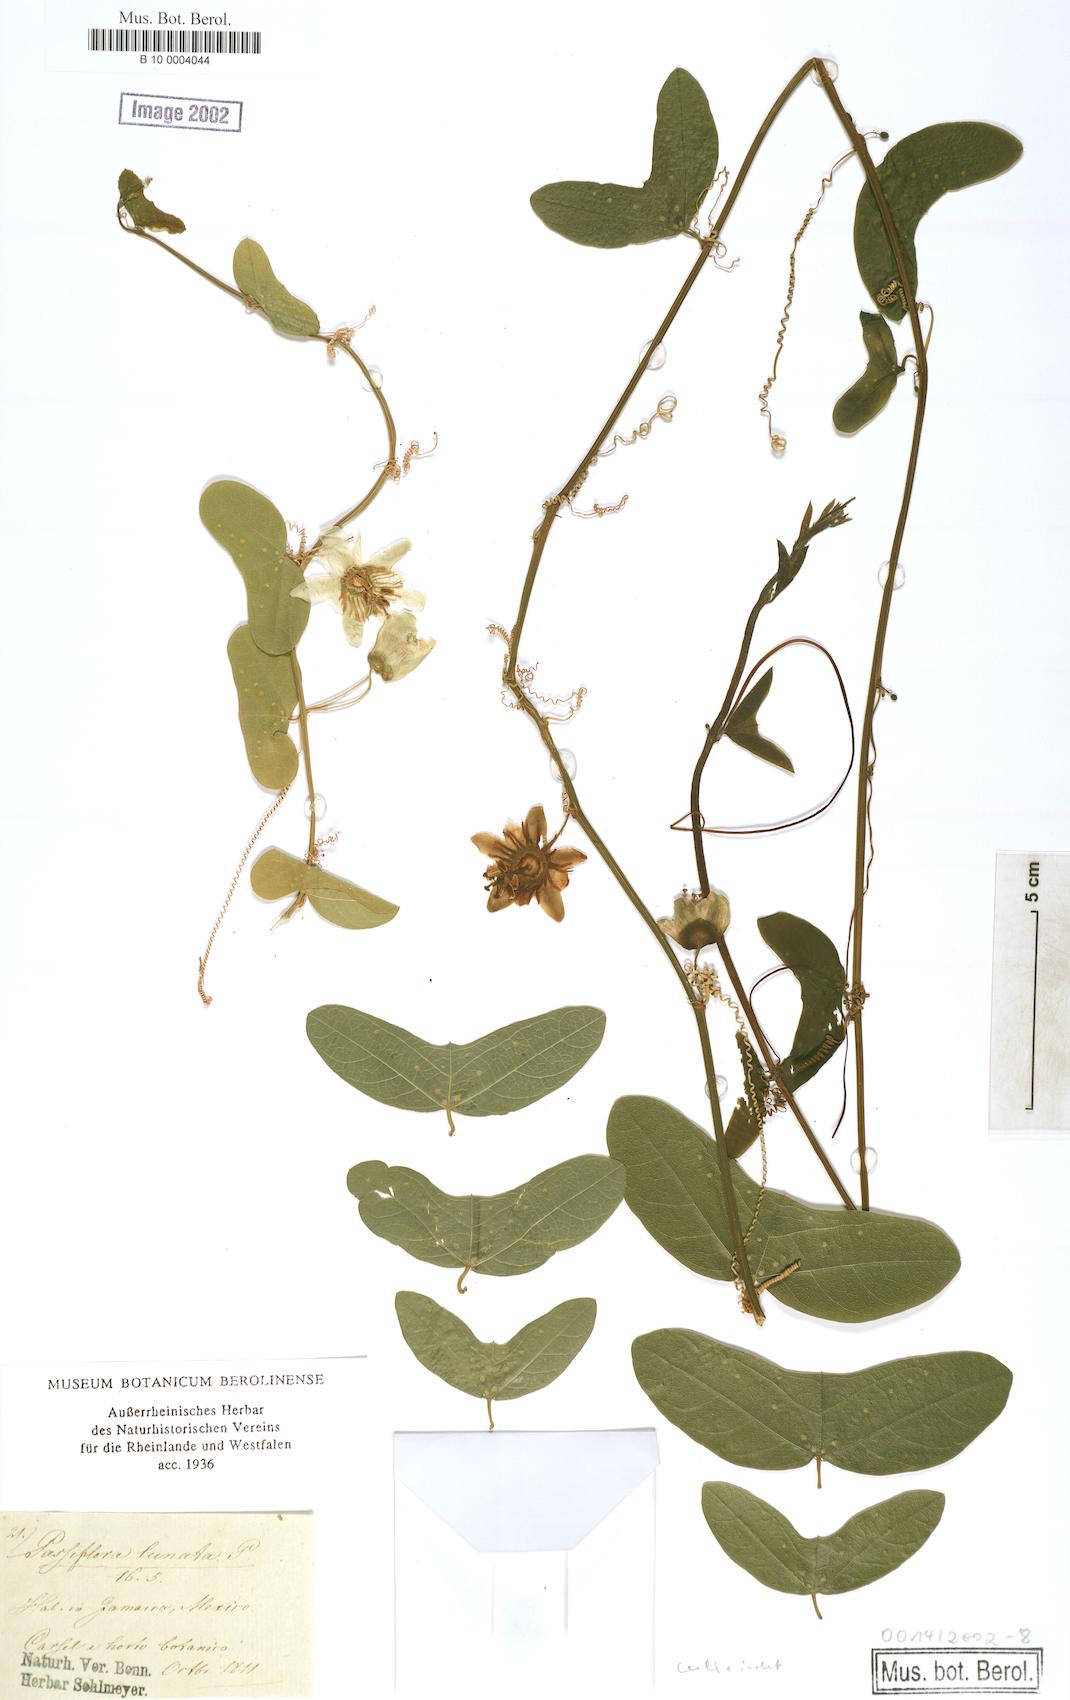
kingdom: Plantae
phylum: Tracheophyta
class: Magnoliopsida
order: Malpighiales
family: Passifloraceae
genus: Passiflora
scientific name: Passiflora
